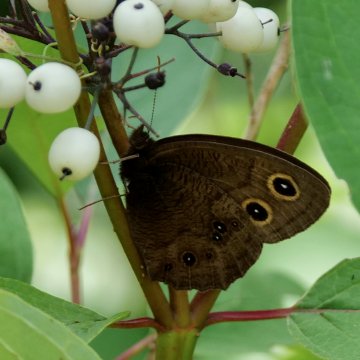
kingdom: Animalia
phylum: Arthropoda
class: Insecta
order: Lepidoptera
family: Nymphalidae
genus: Cercyonis
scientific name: Cercyonis pegala
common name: Common Wood-Nymph
